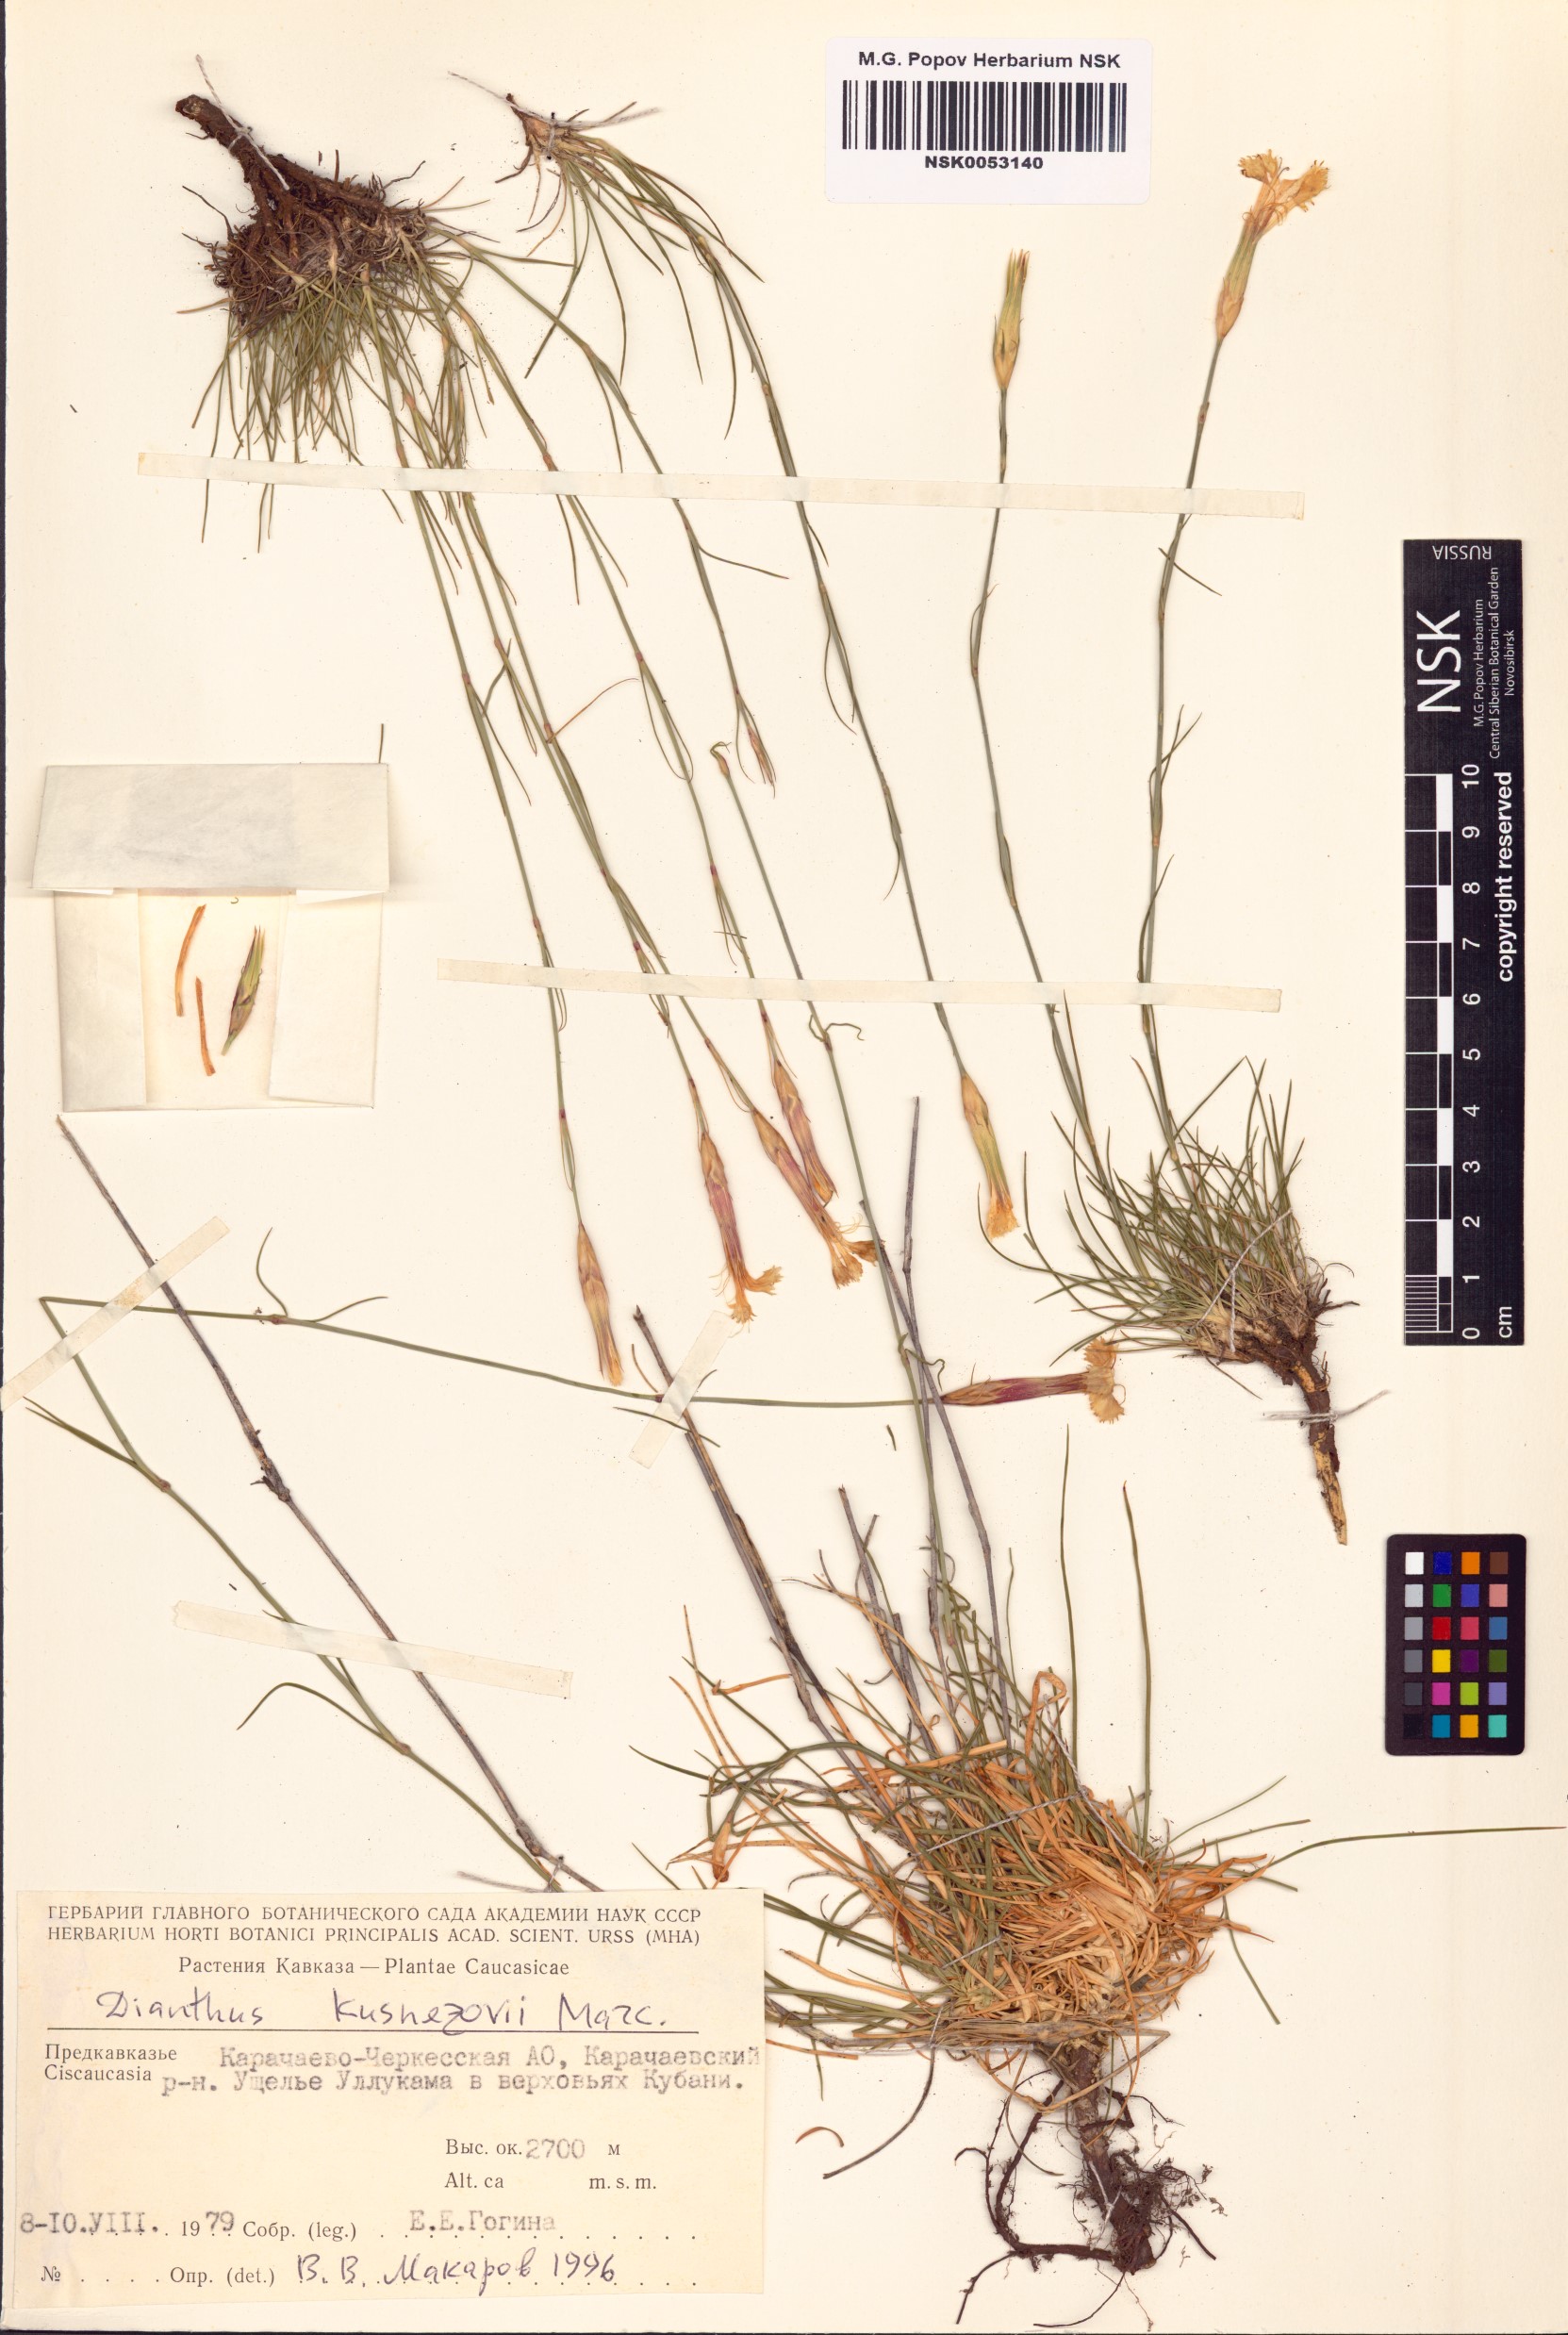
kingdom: Plantae
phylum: Tracheophyta
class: Magnoliopsida
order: Caryophyllales
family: Caryophyllaceae
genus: Dianthus
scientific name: Dianthus kusnezovii
